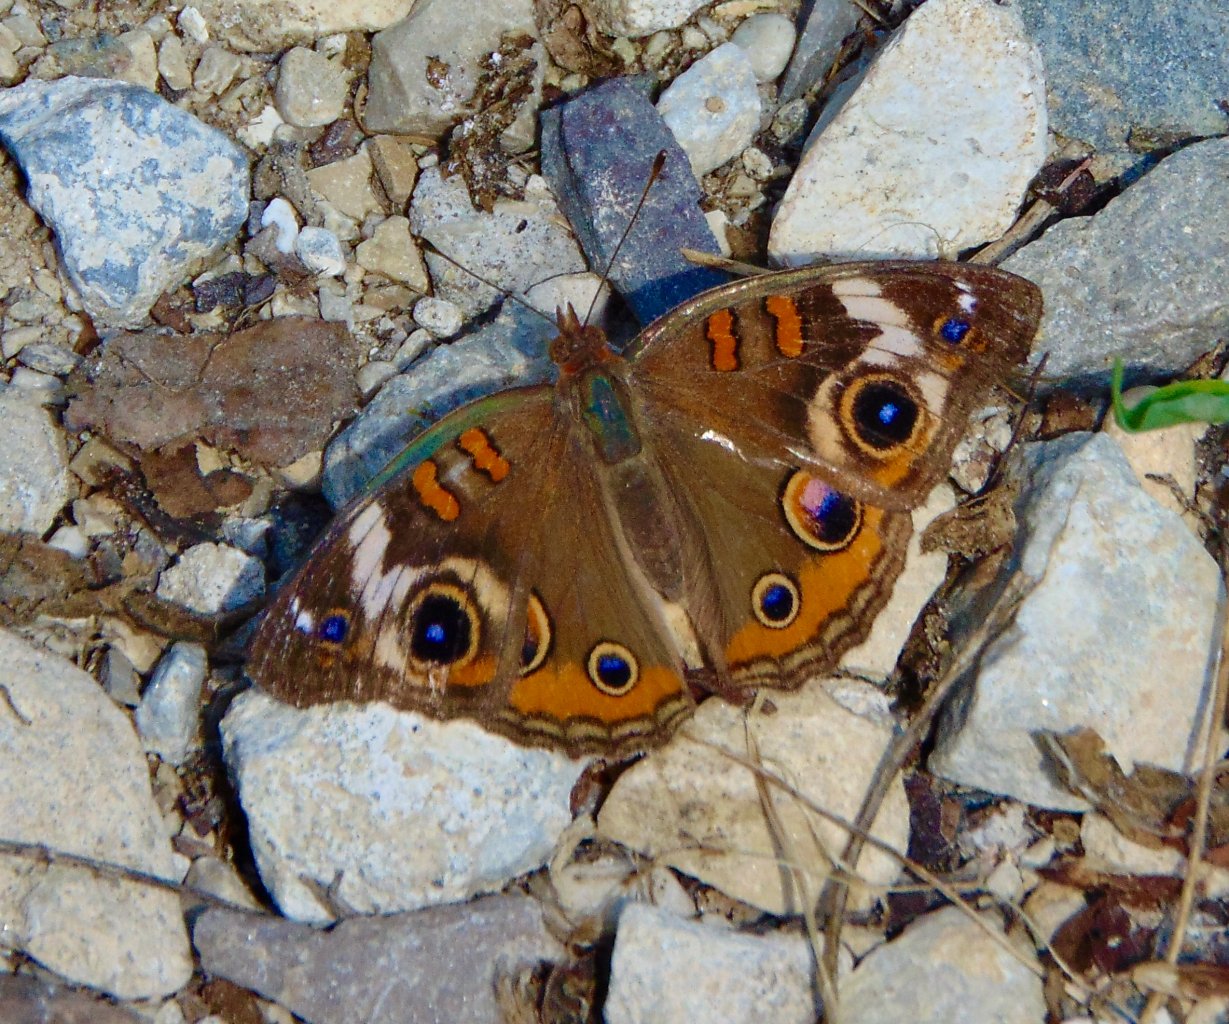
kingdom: Animalia
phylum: Arthropoda
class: Insecta
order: Lepidoptera
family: Nymphalidae
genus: Junonia
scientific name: Junonia coenia
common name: Common Buckeye
